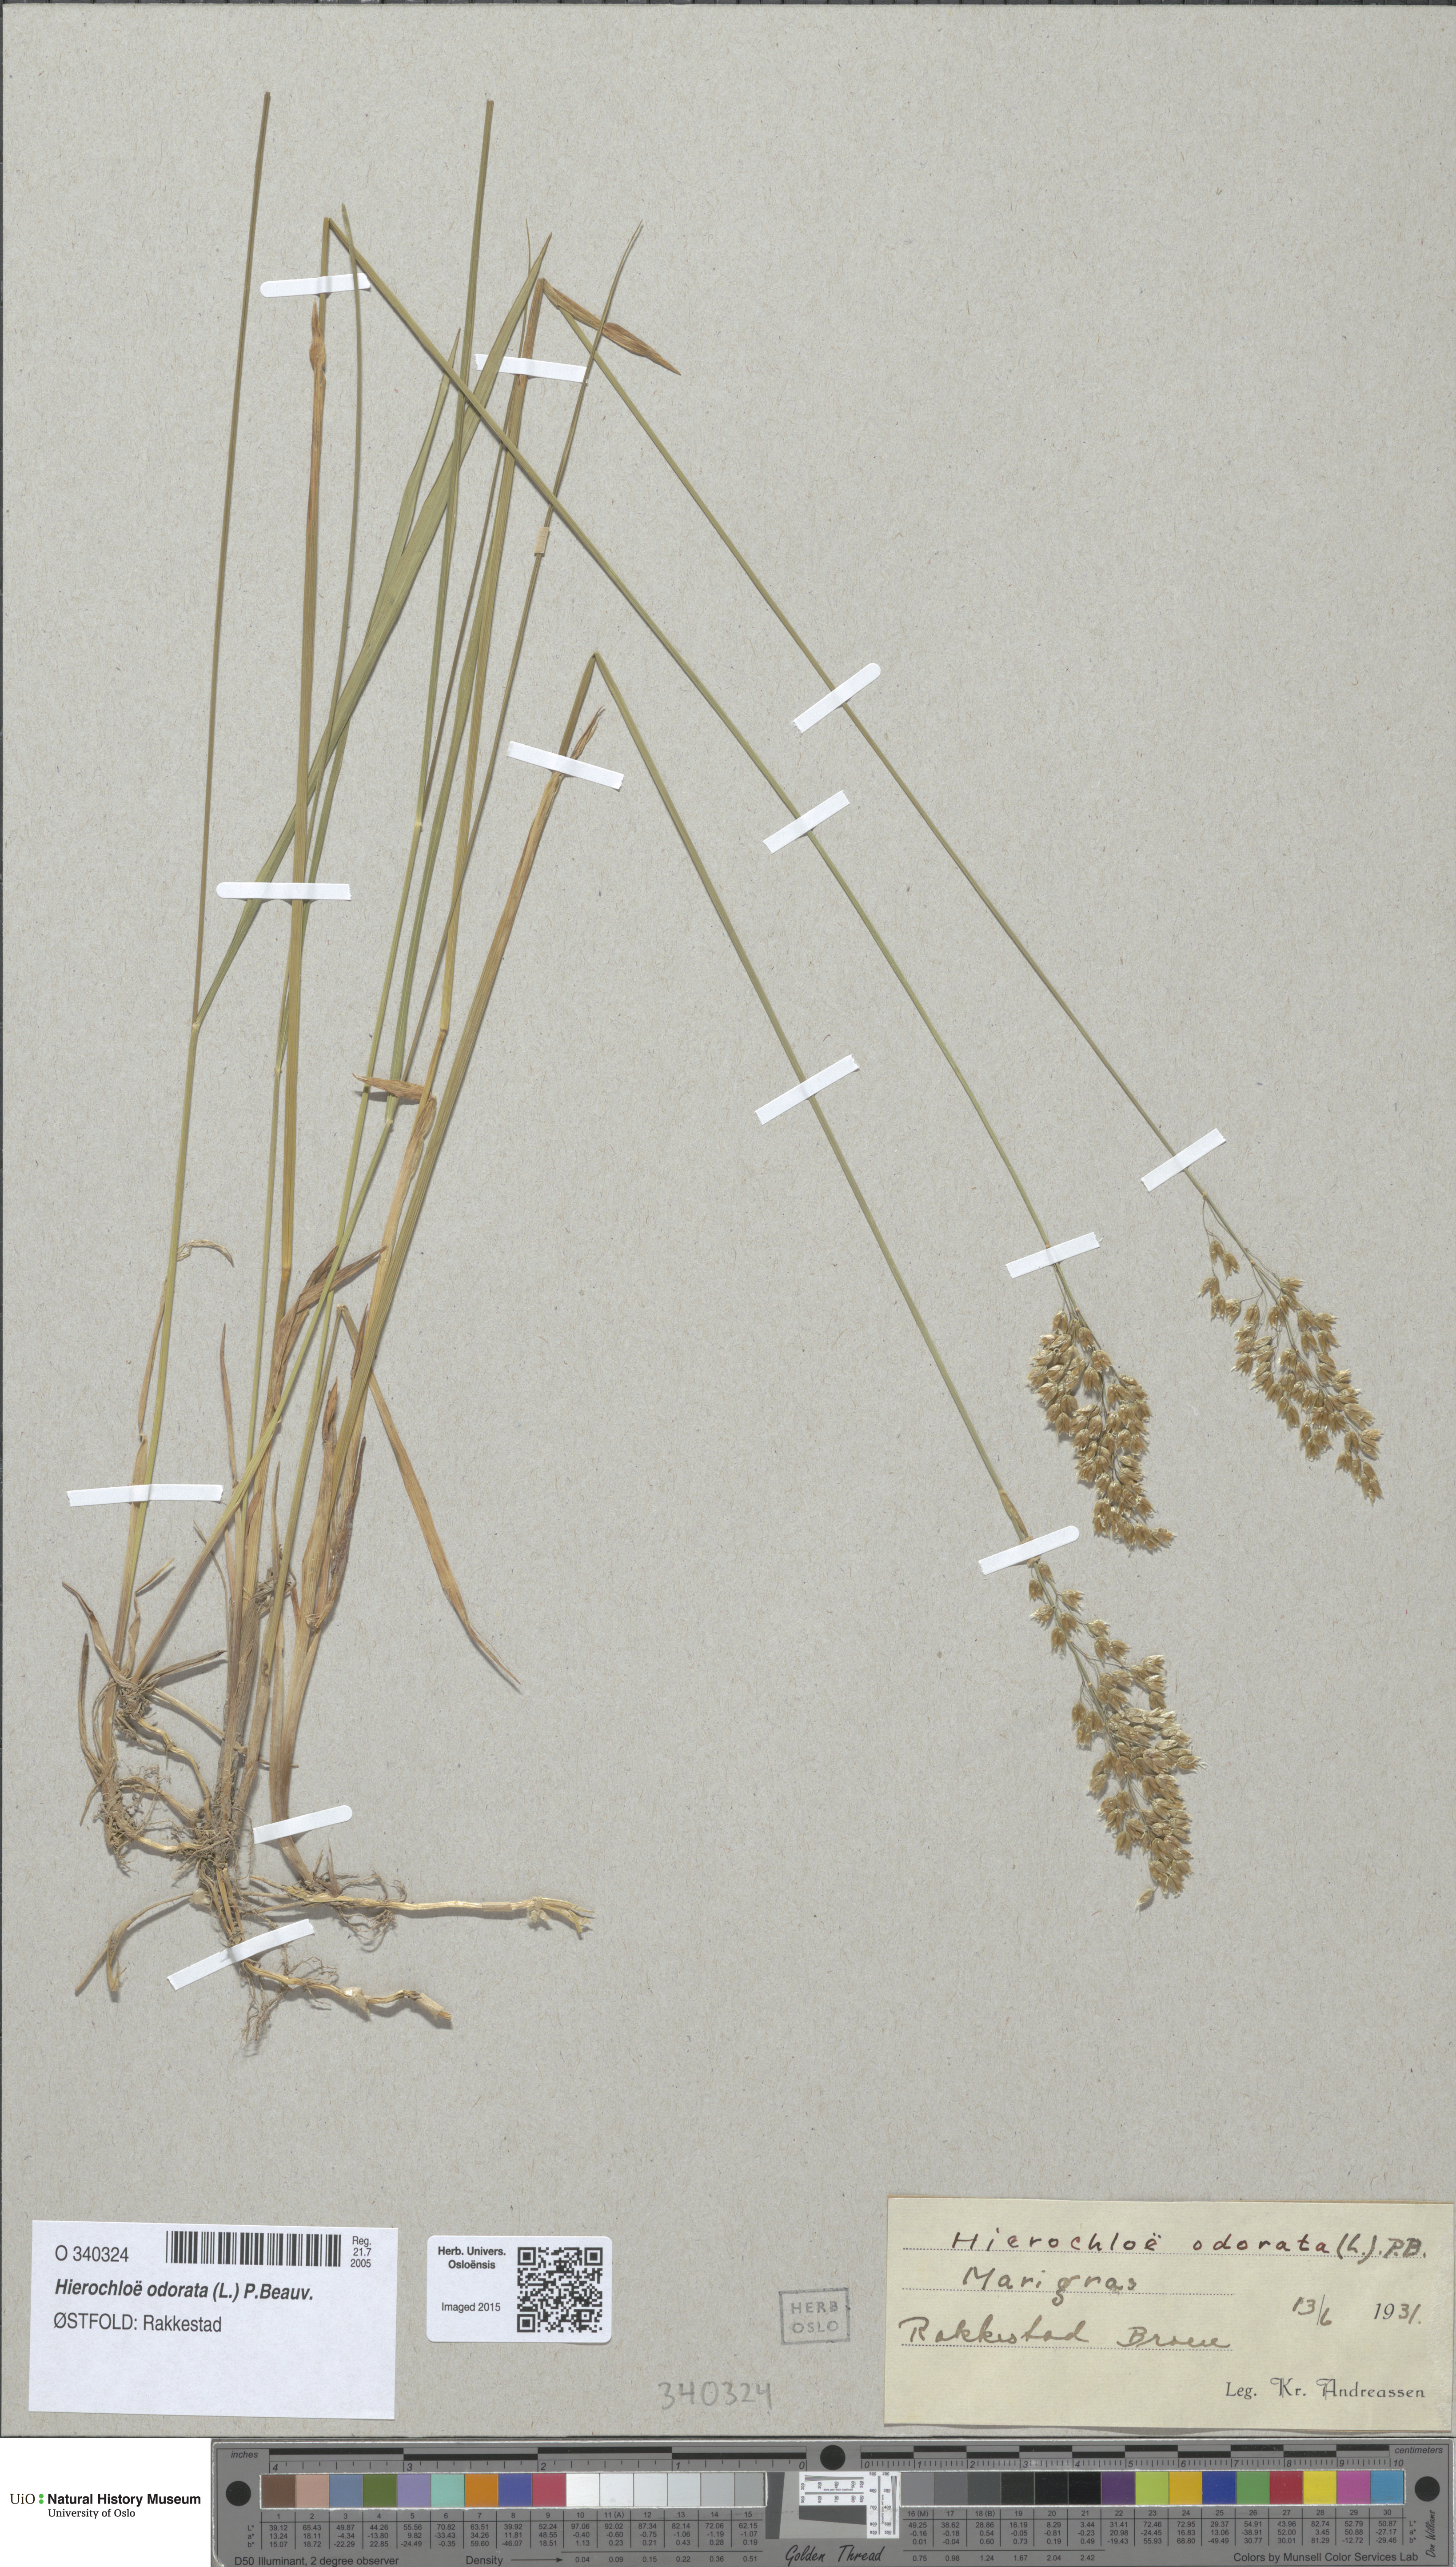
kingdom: Plantae
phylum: Tracheophyta
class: Liliopsida
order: Poales
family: Poaceae
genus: Anthoxanthum
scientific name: Anthoxanthum nitens
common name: Holy grass
